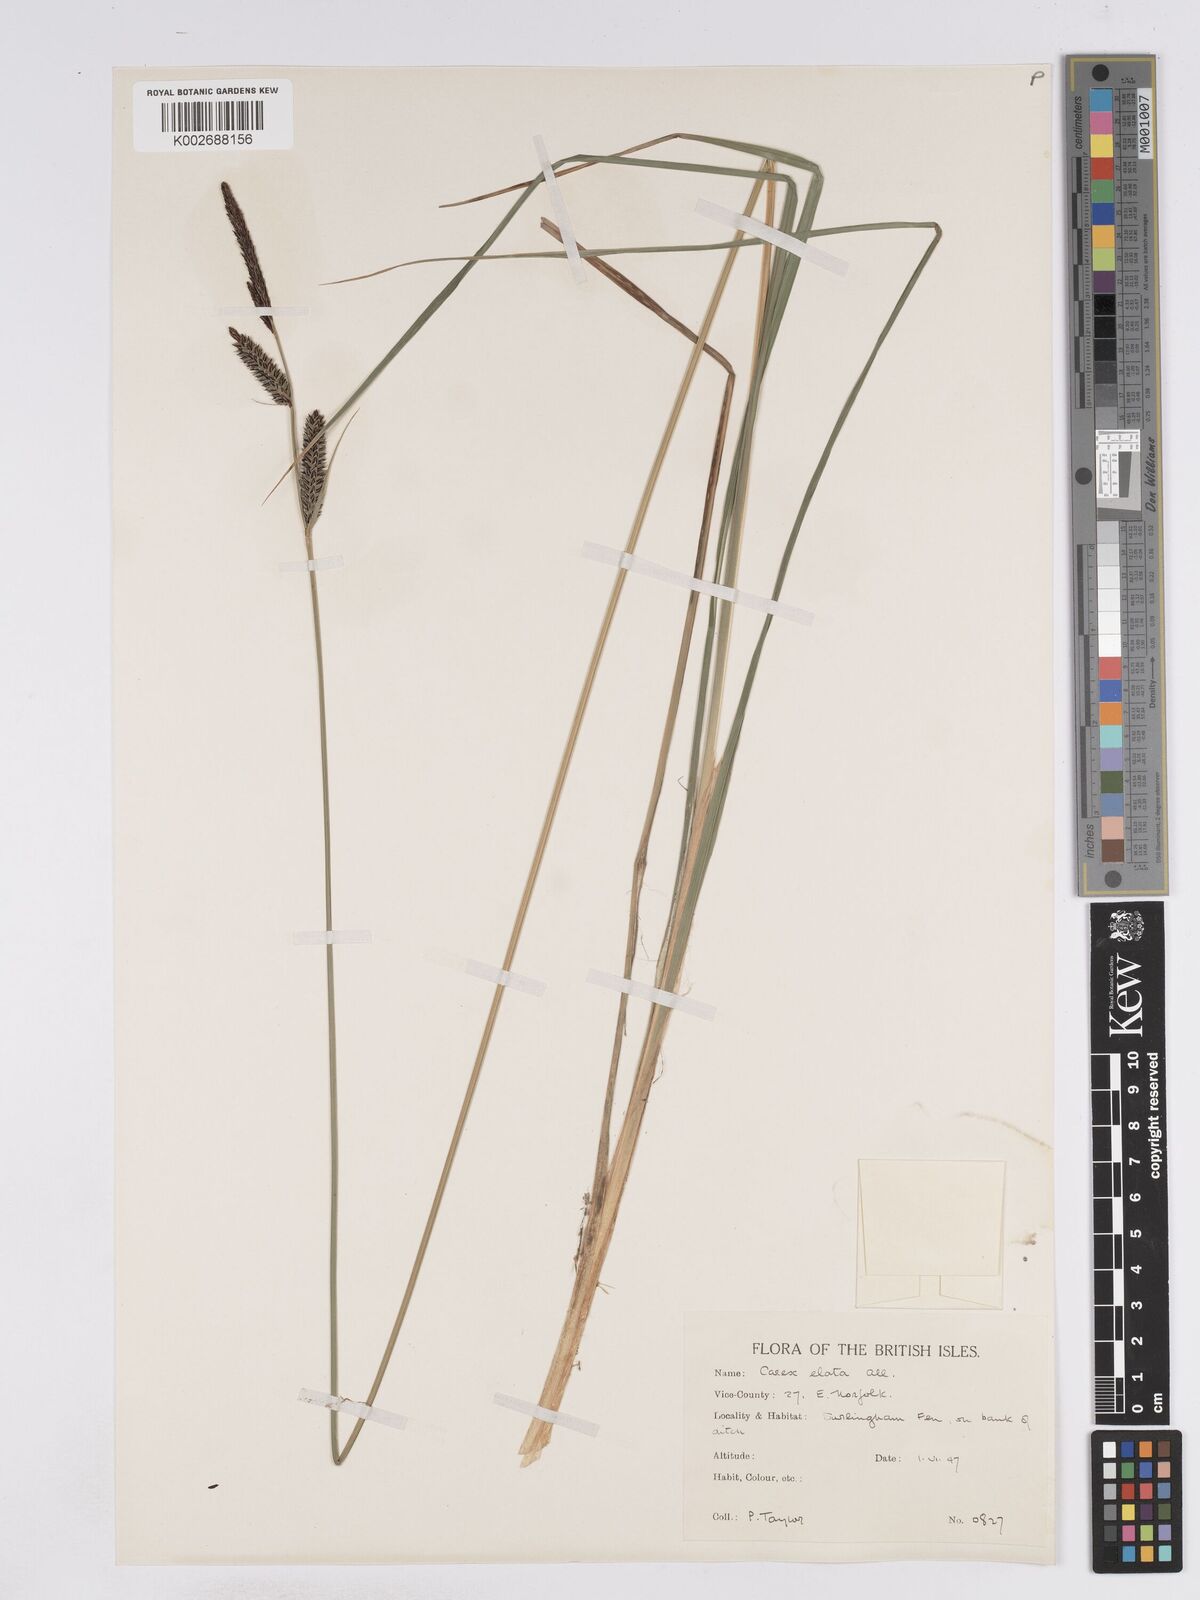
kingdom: Plantae
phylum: Tracheophyta
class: Liliopsida
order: Poales
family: Cyperaceae
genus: Carex
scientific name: Carex elata
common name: Tufted sedge
